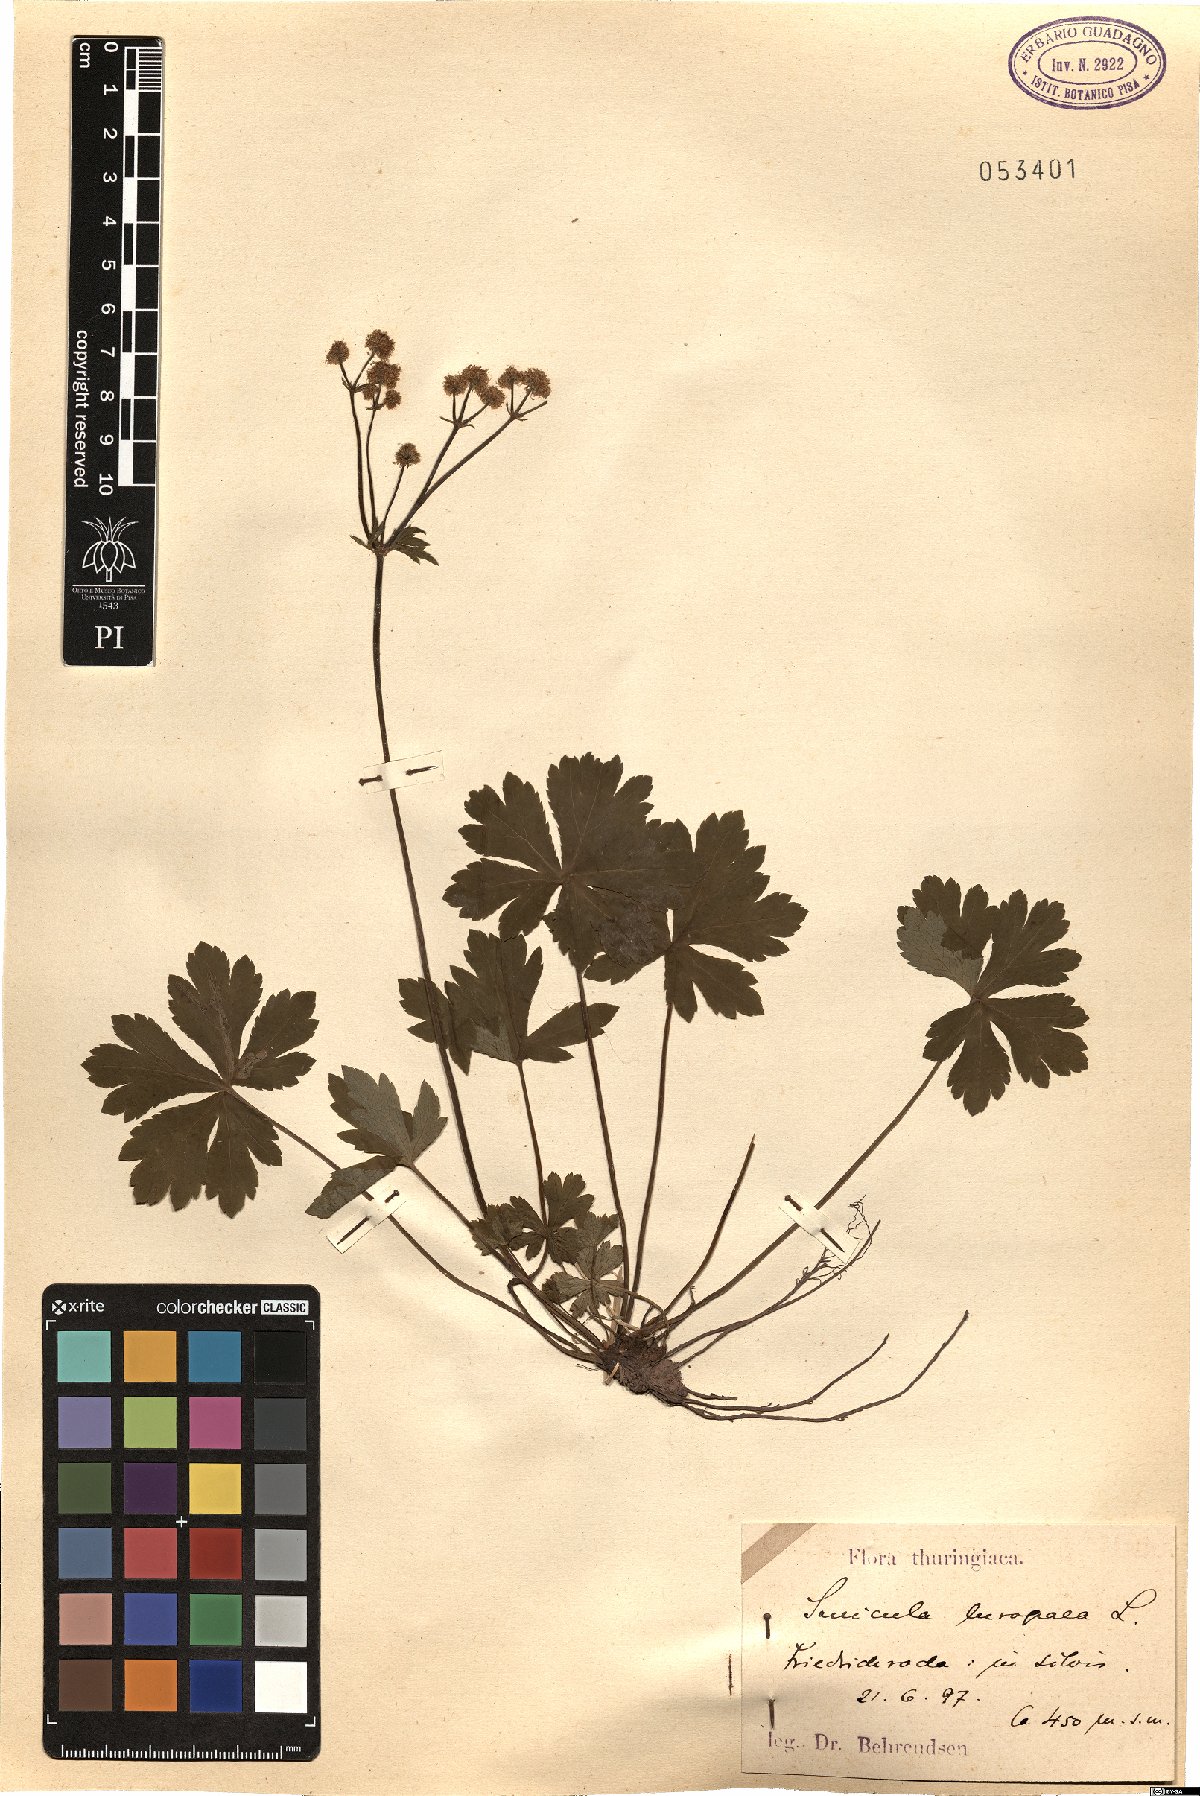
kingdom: Plantae
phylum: Tracheophyta
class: Magnoliopsida
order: Apiales
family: Apiaceae
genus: Sanicula
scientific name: Sanicula europaea
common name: Sanicle
